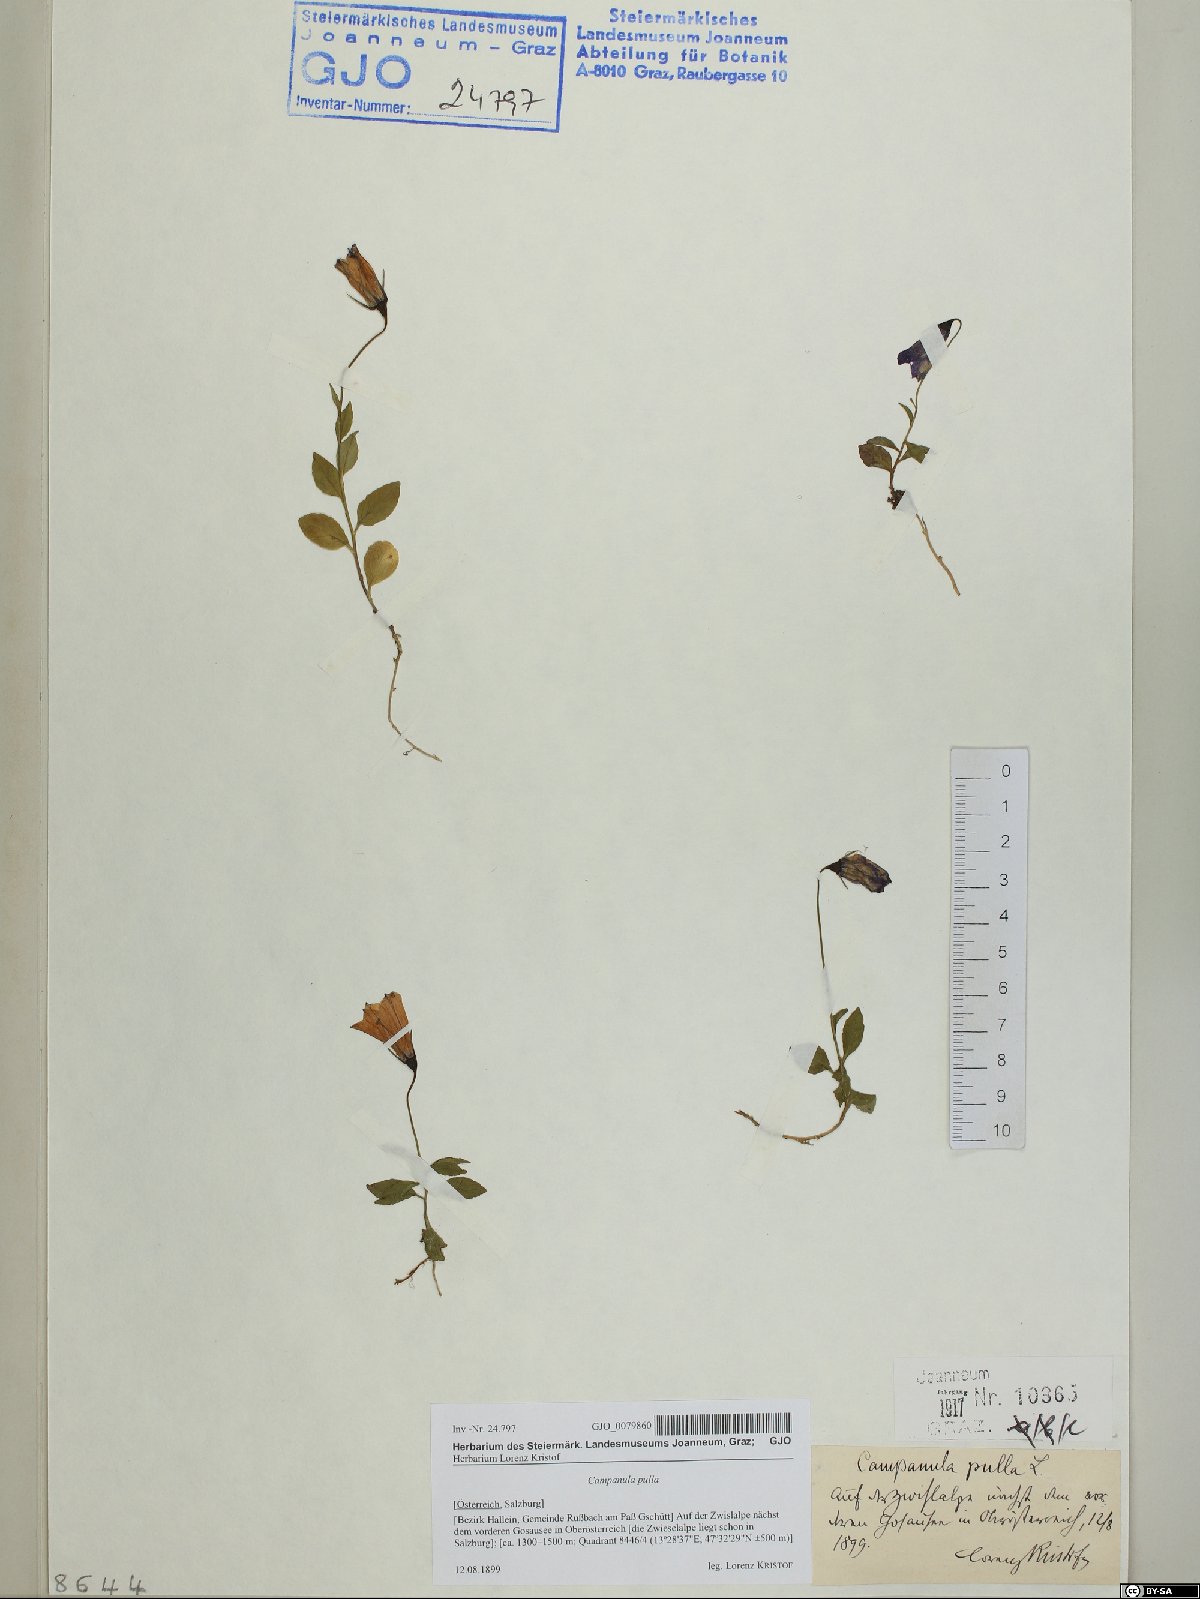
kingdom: Plantae
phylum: Tracheophyta
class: Magnoliopsida
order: Asterales
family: Campanulaceae
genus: Campanula
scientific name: Campanula pulla
